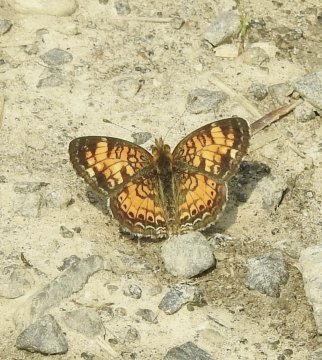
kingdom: Animalia
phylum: Arthropoda
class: Insecta
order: Lepidoptera
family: Nymphalidae
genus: Phyciodes
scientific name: Phyciodes tharos
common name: Pearl Crescent
